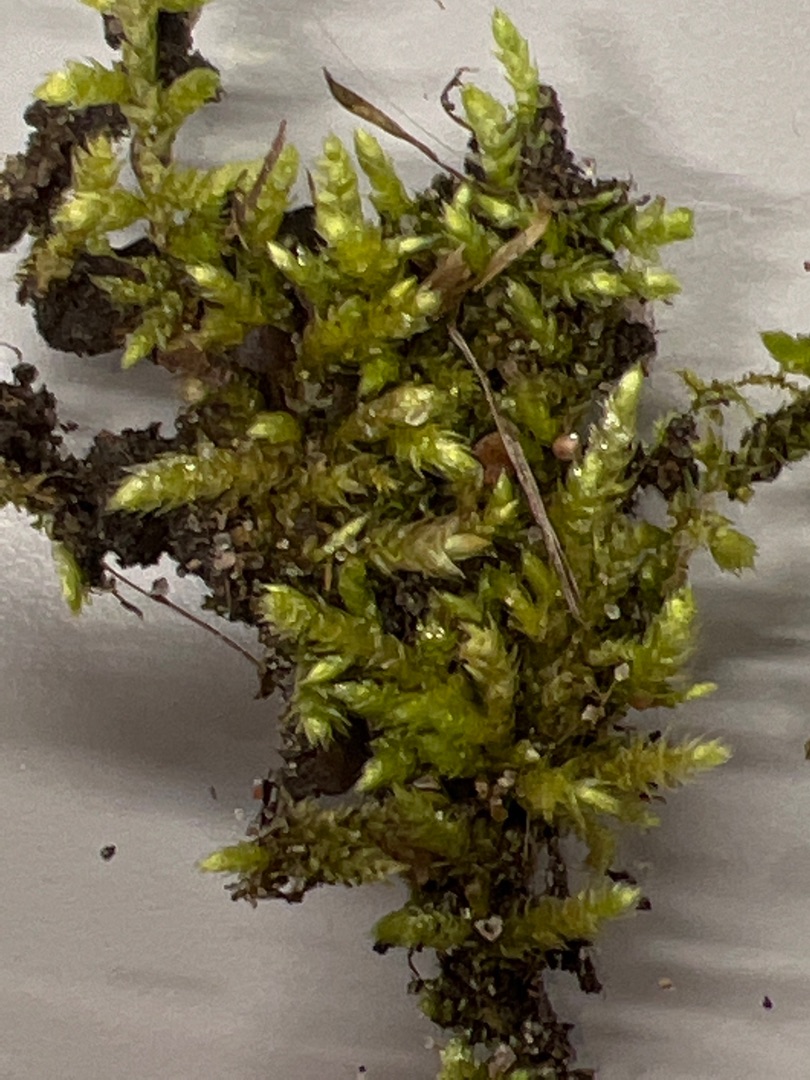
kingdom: Plantae
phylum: Bryophyta
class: Bryopsida
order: Hypnales
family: Brachytheciaceae
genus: Brachythecium
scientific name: Brachythecium rutabulum
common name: Almindelig kortkapsel
